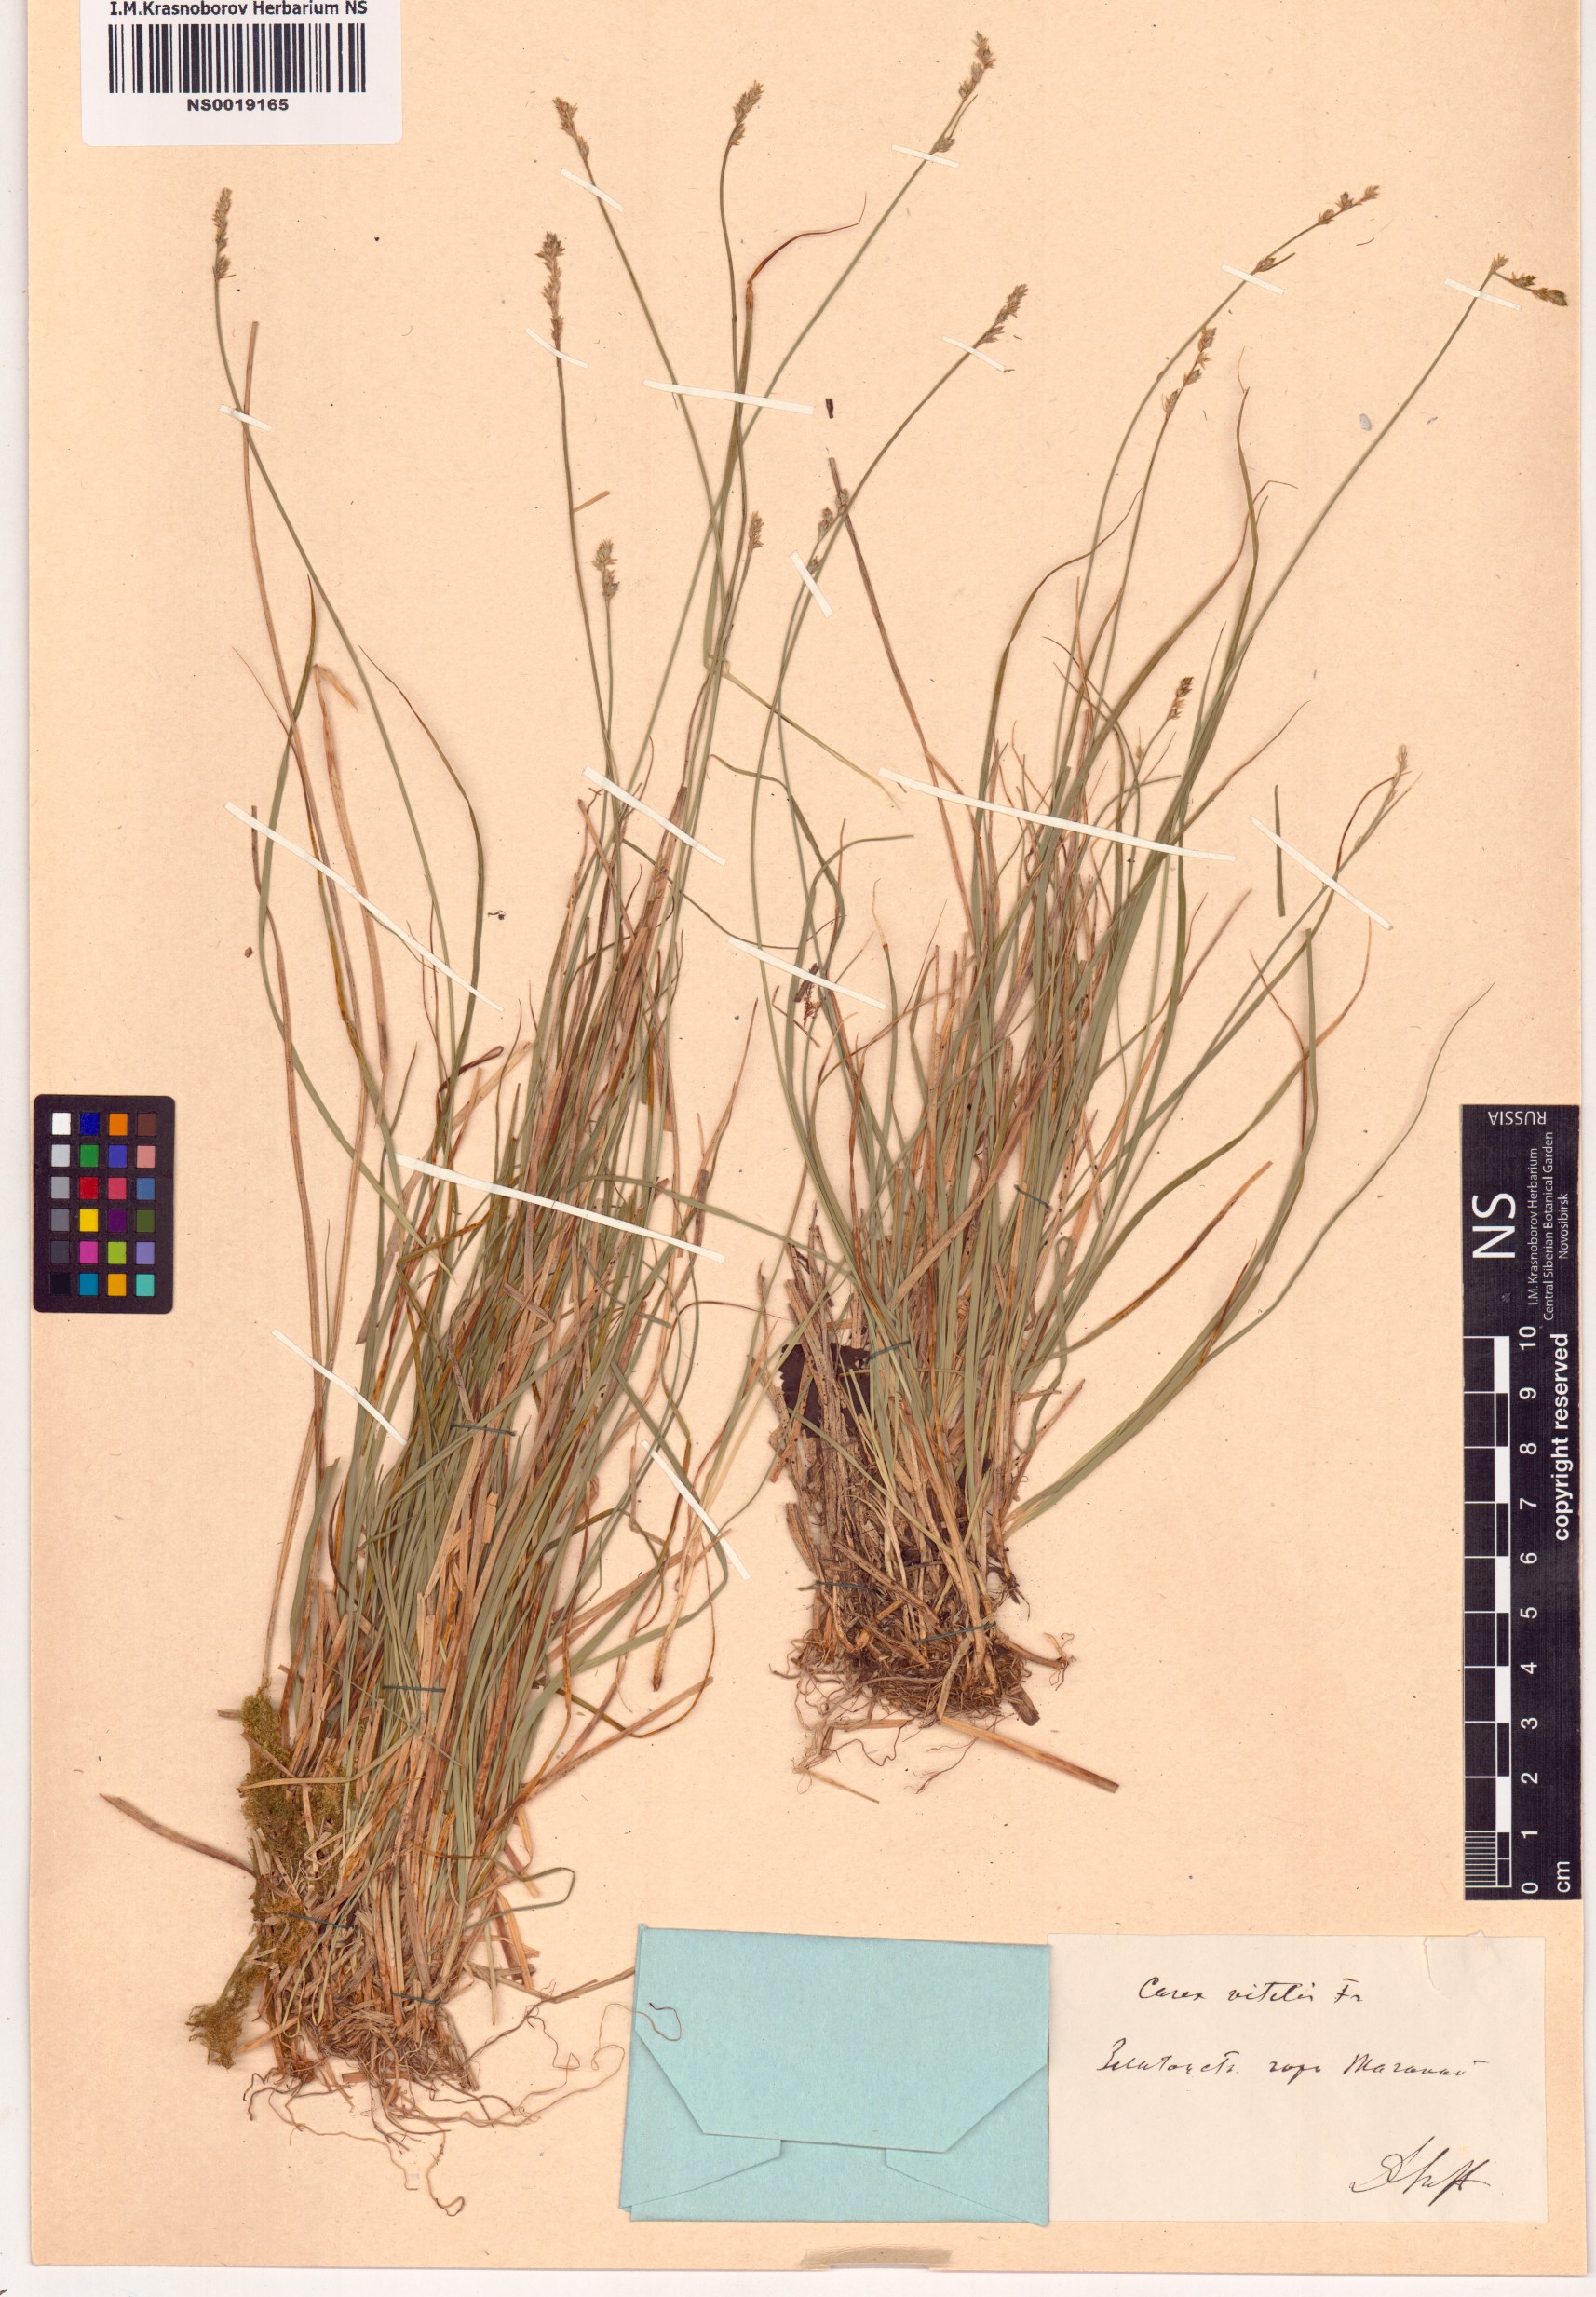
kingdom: Plantae
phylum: Tracheophyta
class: Liliopsida
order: Poales
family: Cyperaceae
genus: Carex
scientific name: Carex brunnescens
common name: Brown sedge
